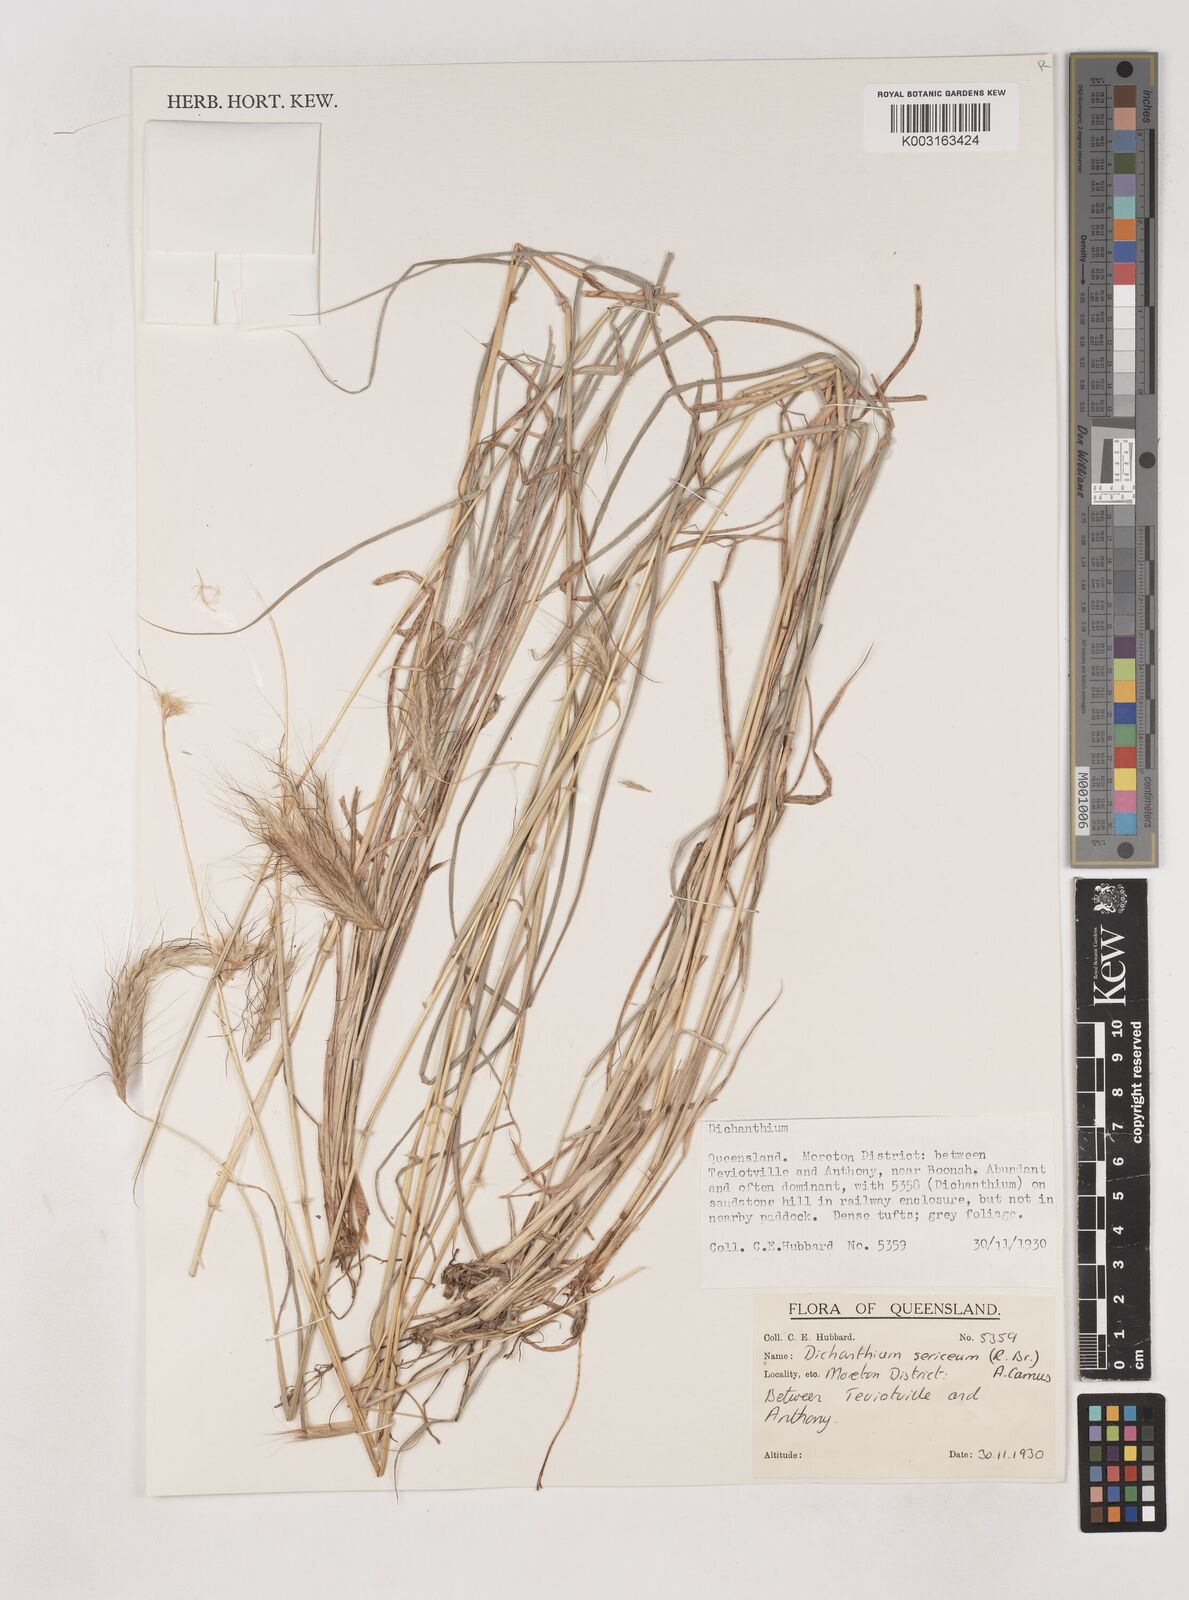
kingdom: Plantae
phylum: Tracheophyta
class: Liliopsida
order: Poales
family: Poaceae
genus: Dichanthium
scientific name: Dichanthium sericeum
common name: Silky bluestem
